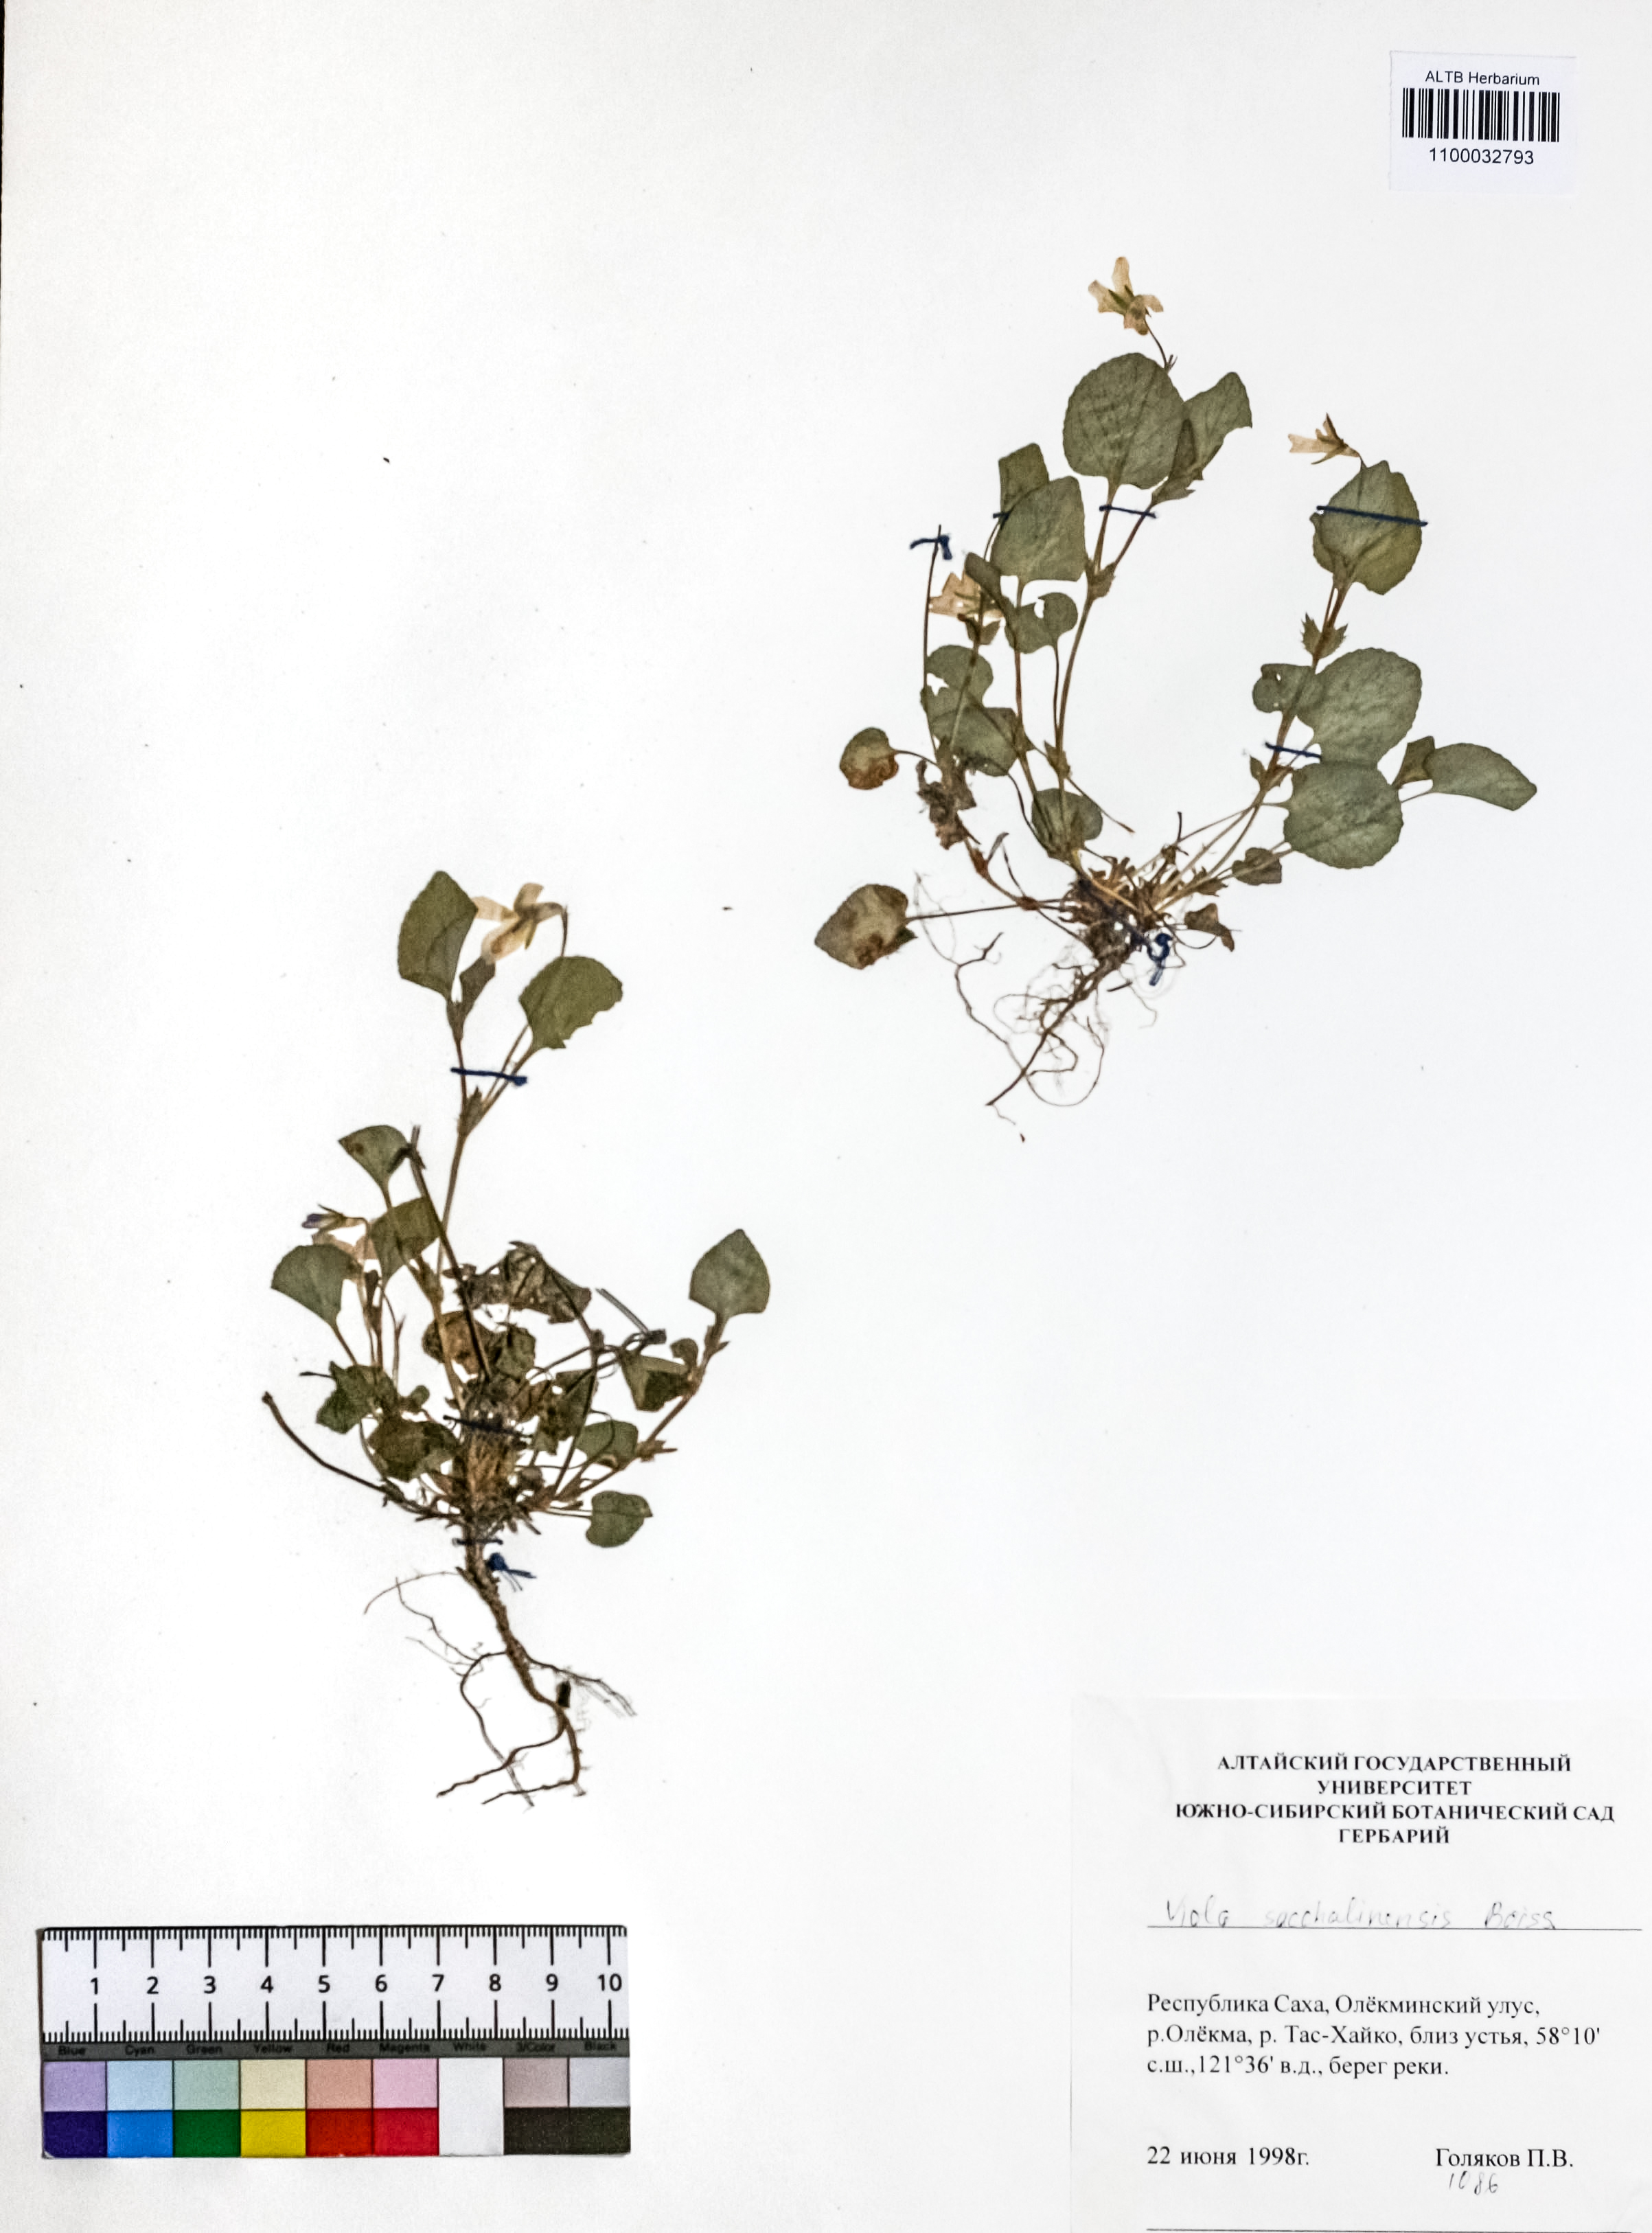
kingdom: Plantae
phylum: Tracheophyta
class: Magnoliopsida
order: Malpighiales
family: Violaceae
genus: Viola
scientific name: Viola sacchalinensis
